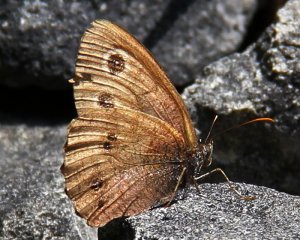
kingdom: Animalia
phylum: Arthropoda
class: Insecta
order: Lepidoptera
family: Nymphalidae
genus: Cercyonis
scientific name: Cercyonis pegala
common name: Common Wood-Nymph
